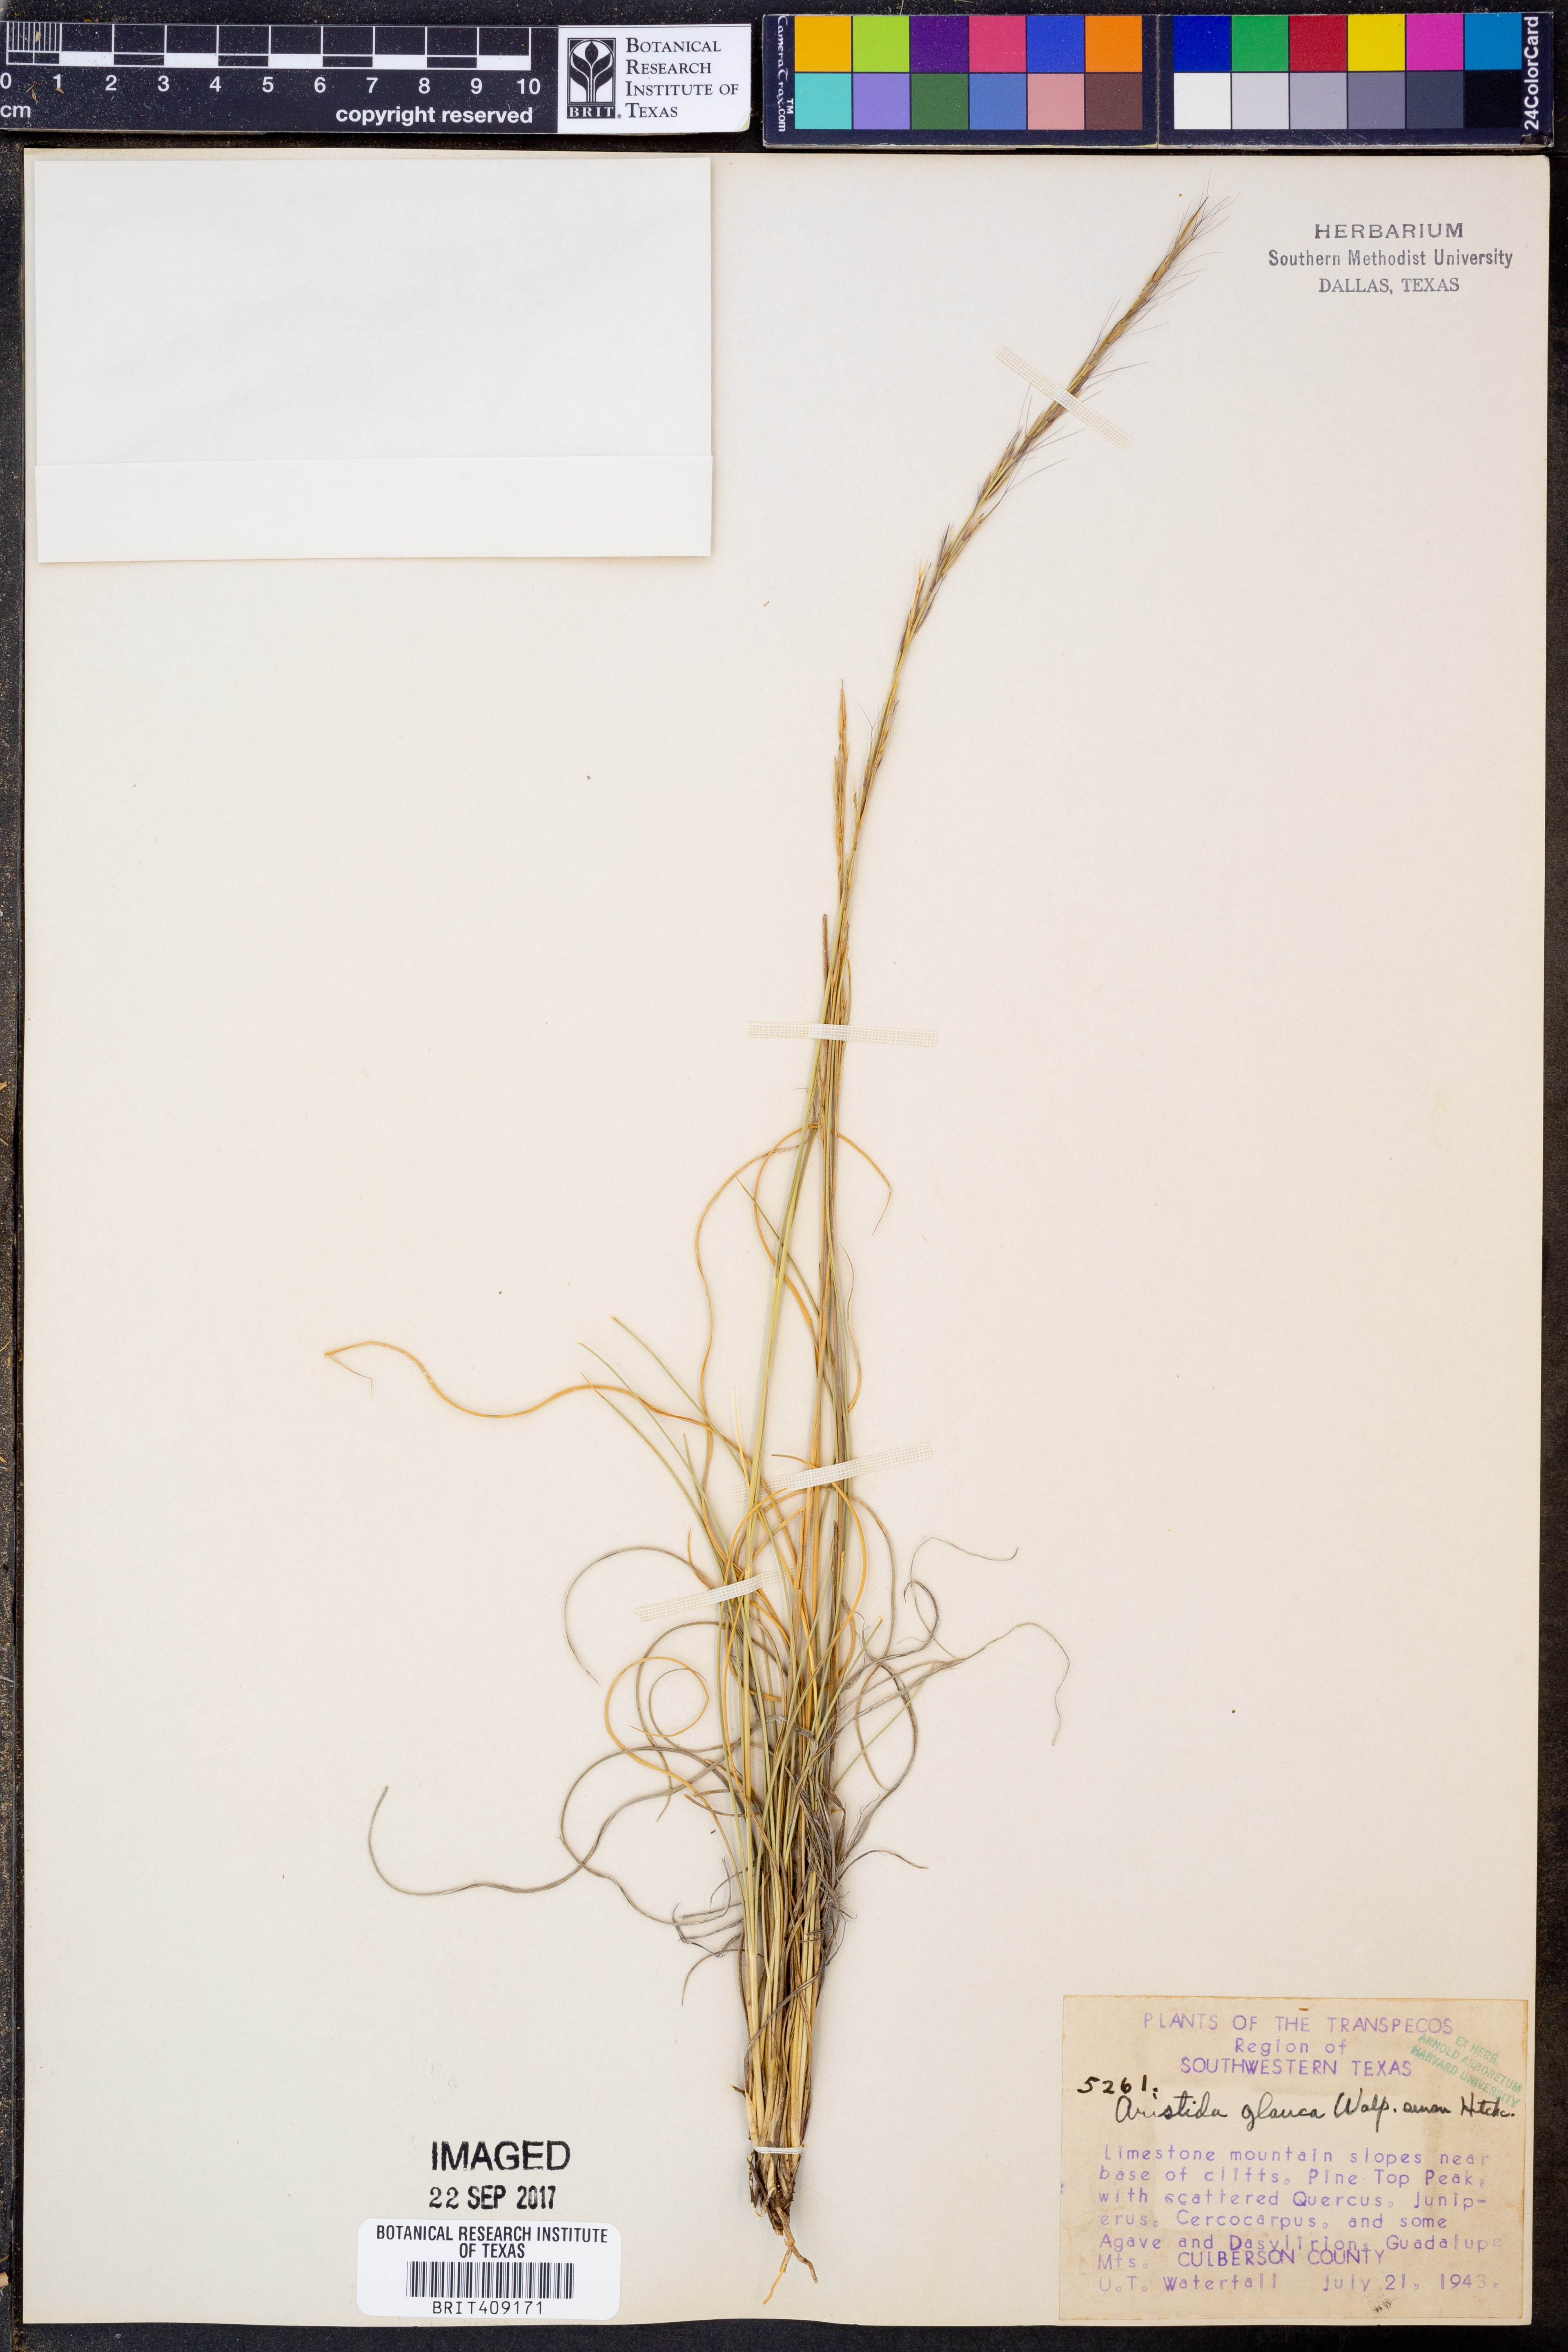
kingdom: Plantae
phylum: Tracheophyta
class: Liliopsida
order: Poales
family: Poaceae
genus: Aristida
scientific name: Aristida glauca
